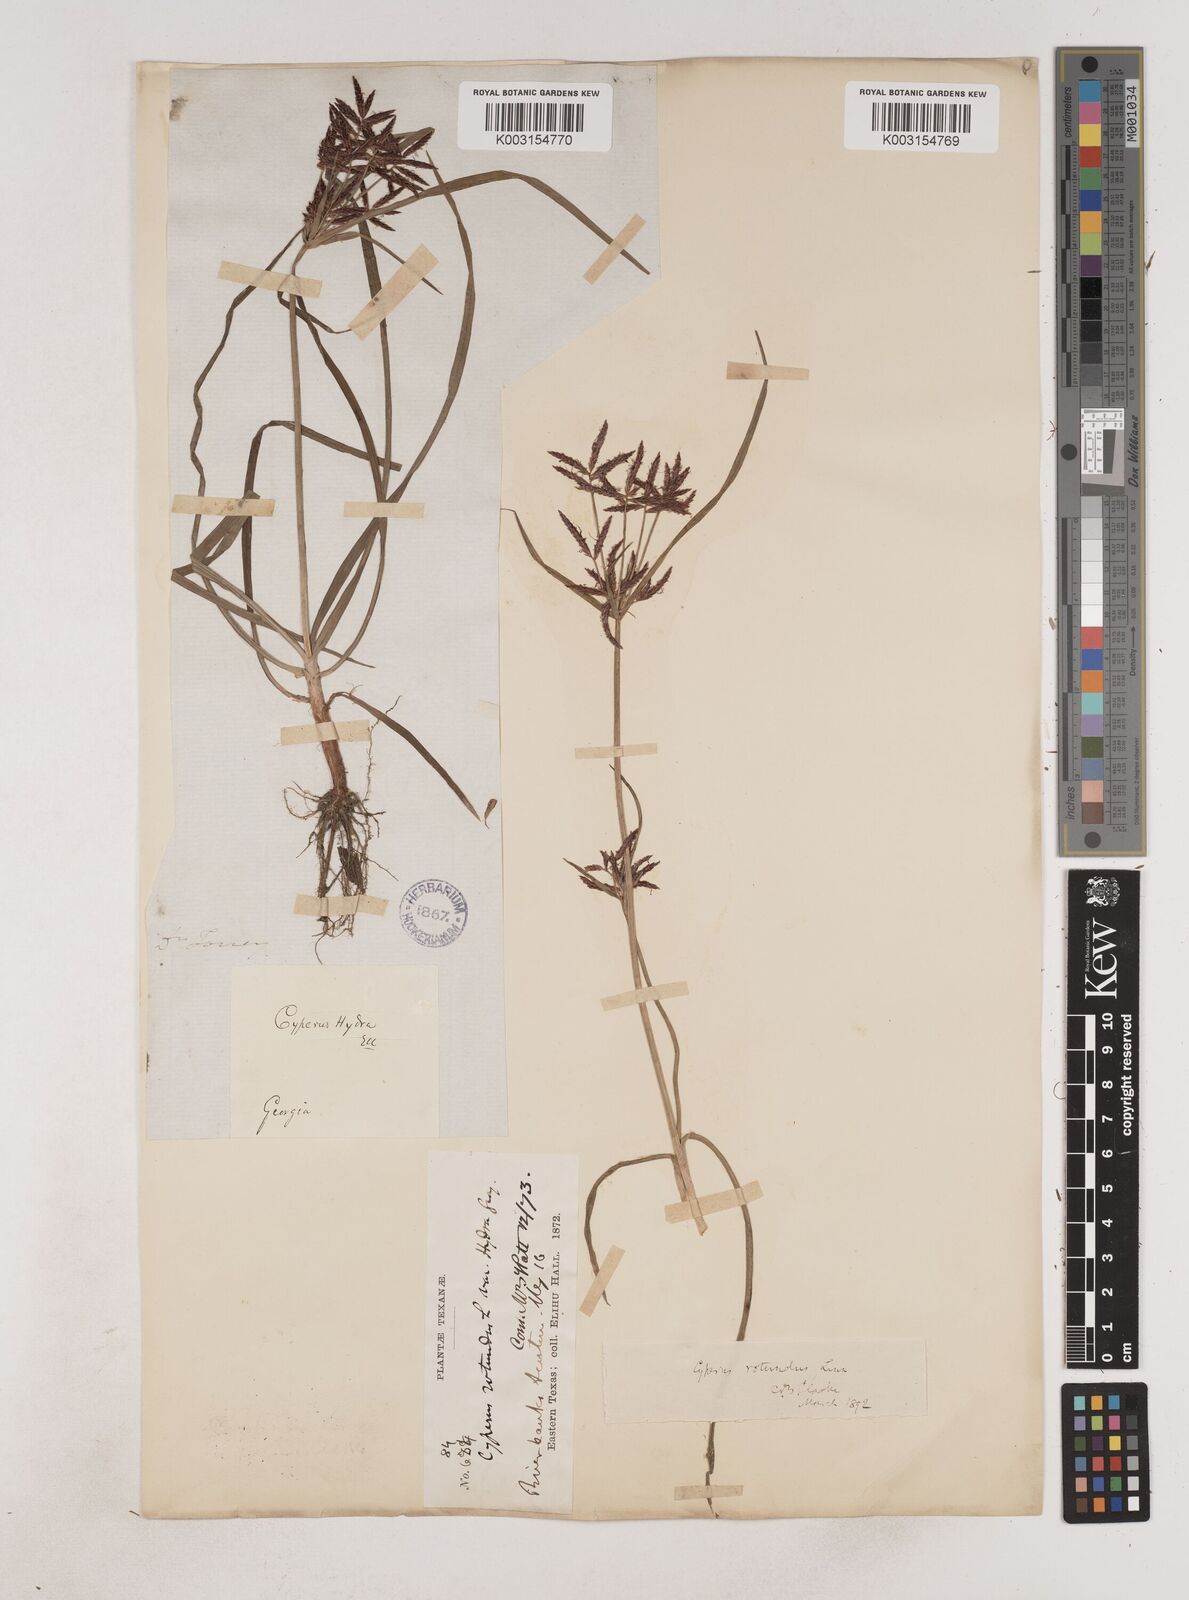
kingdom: Plantae
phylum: Tracheophyta
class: Liliopsida
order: Poales
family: Cyperaceae
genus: Cyperus
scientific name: Cyperus rotundus
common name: Nutgrass
